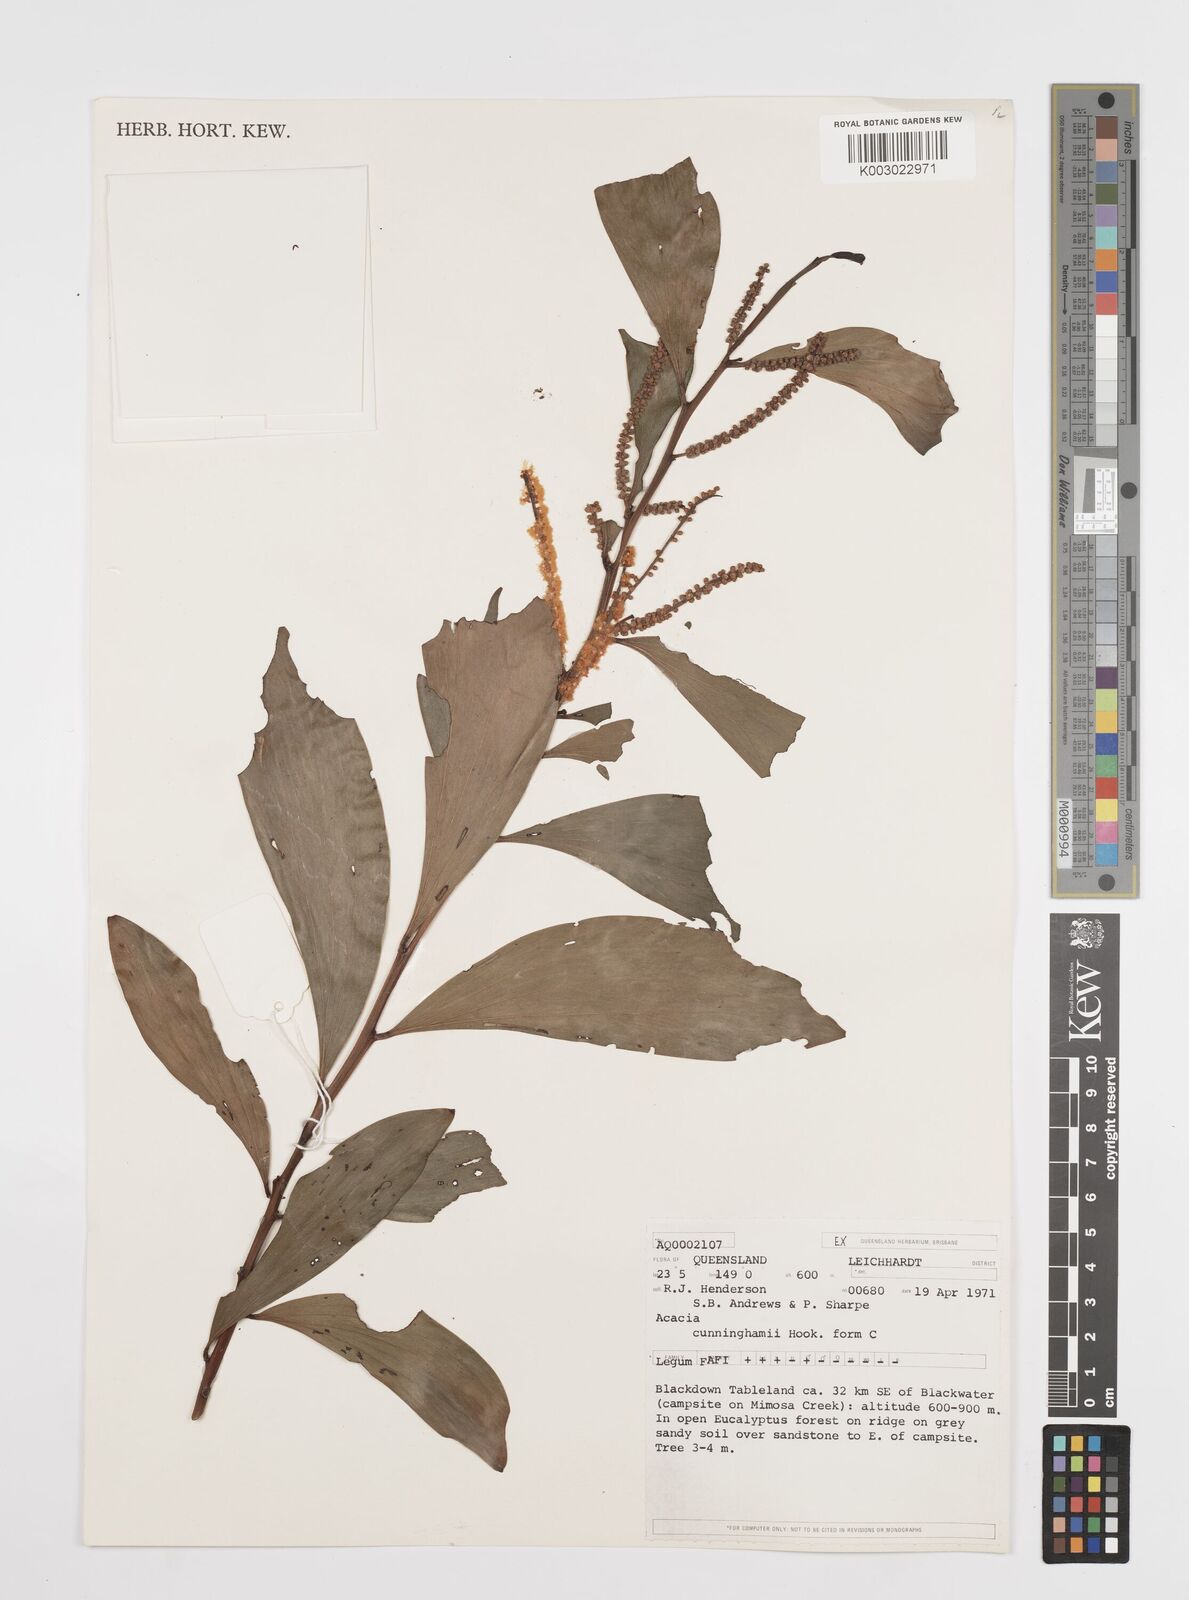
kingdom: Plantae
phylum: Tracheophyta
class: Magnoliopsida
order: Fabales
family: Fabaceae
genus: Acacia
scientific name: Acacia longispicata
